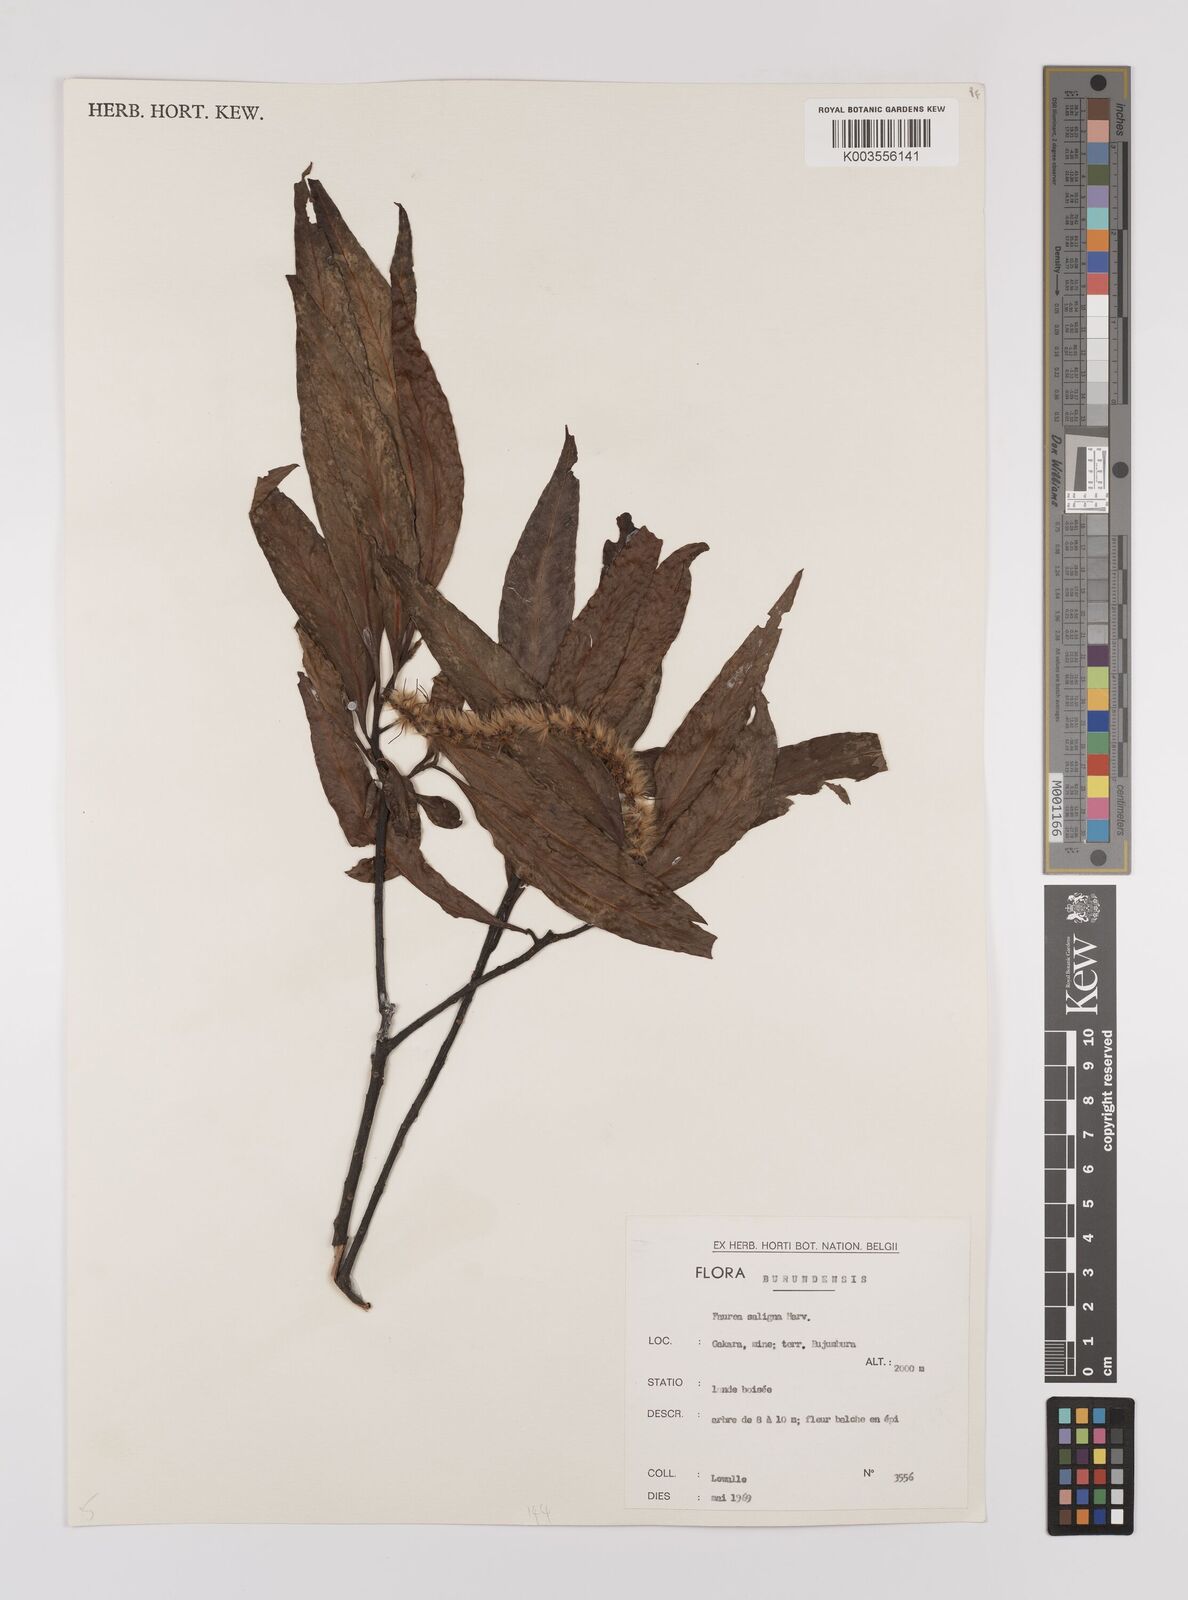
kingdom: Plantae
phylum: Tracheophyta
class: Magnoliopsida
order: Proteales
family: Proteaceae
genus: Faurea
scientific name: Faurea saligna
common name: African bean
